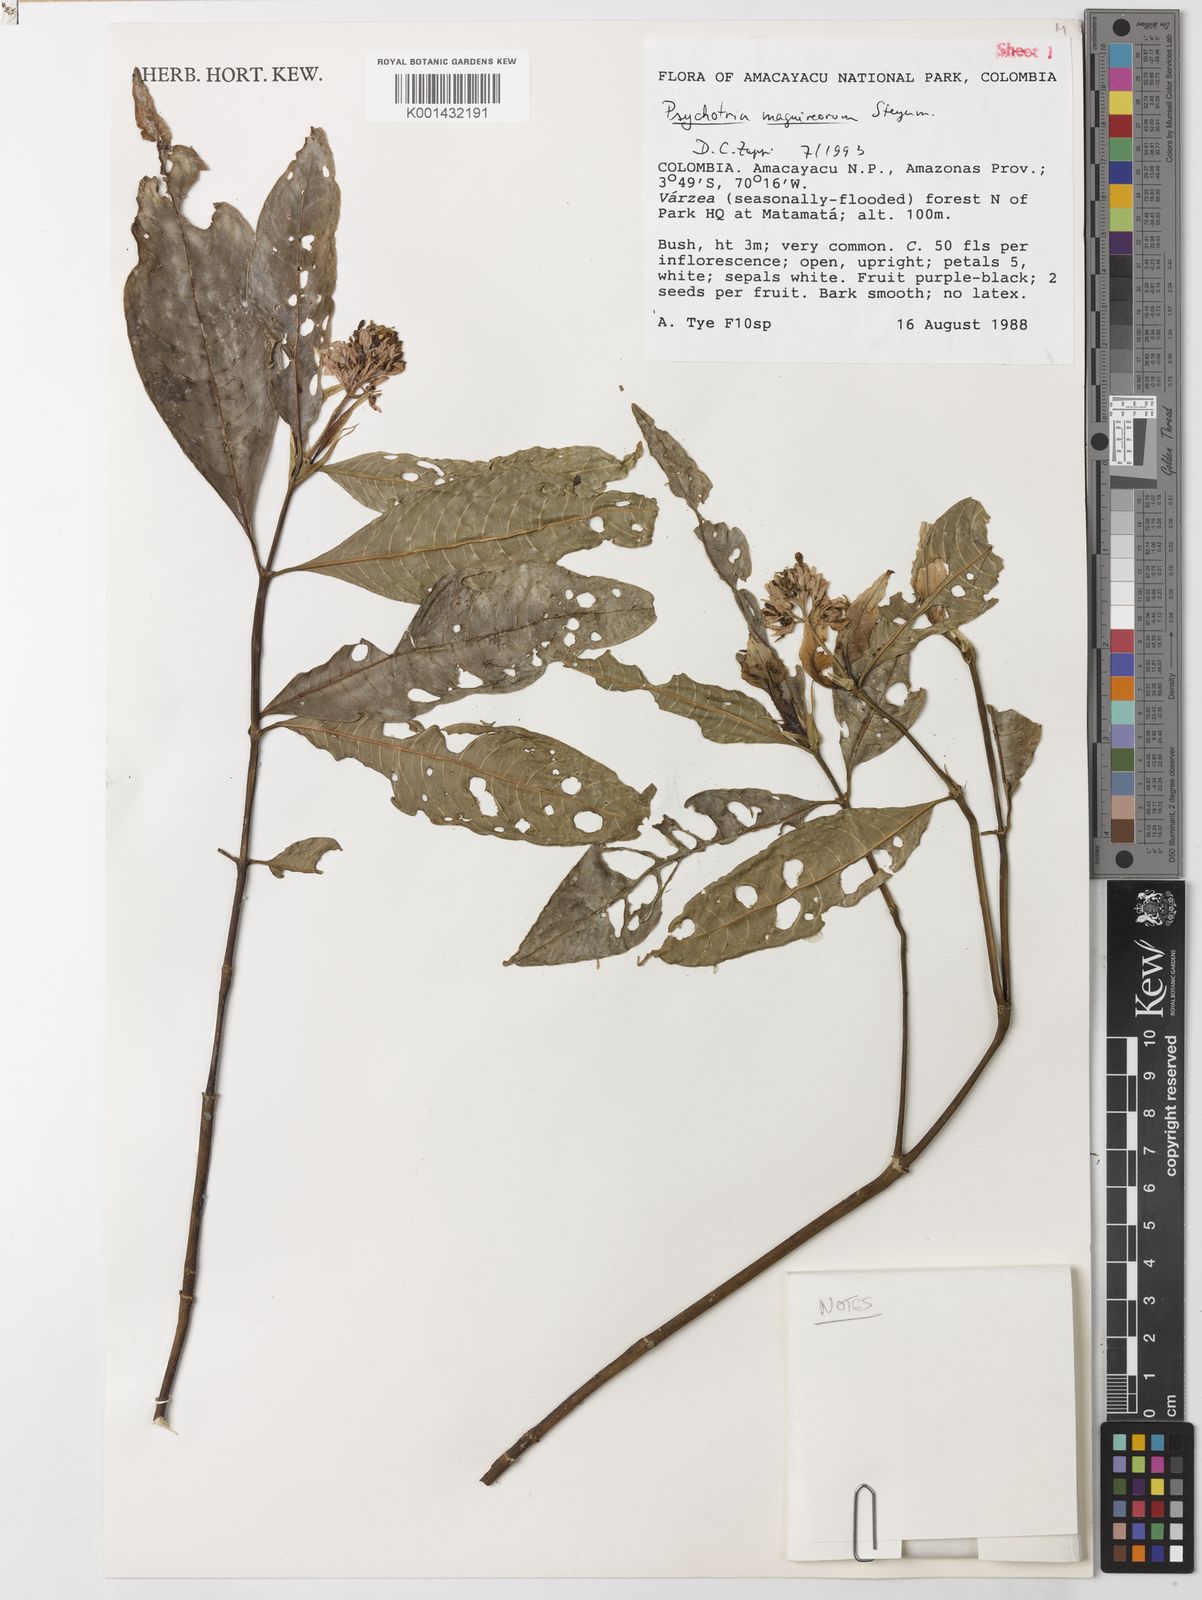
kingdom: Plantae
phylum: Tracheophyta
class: Magnoliopsida
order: Gentianales
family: Rubiaceae
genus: Palicourea
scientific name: Palicourea maguireorum
